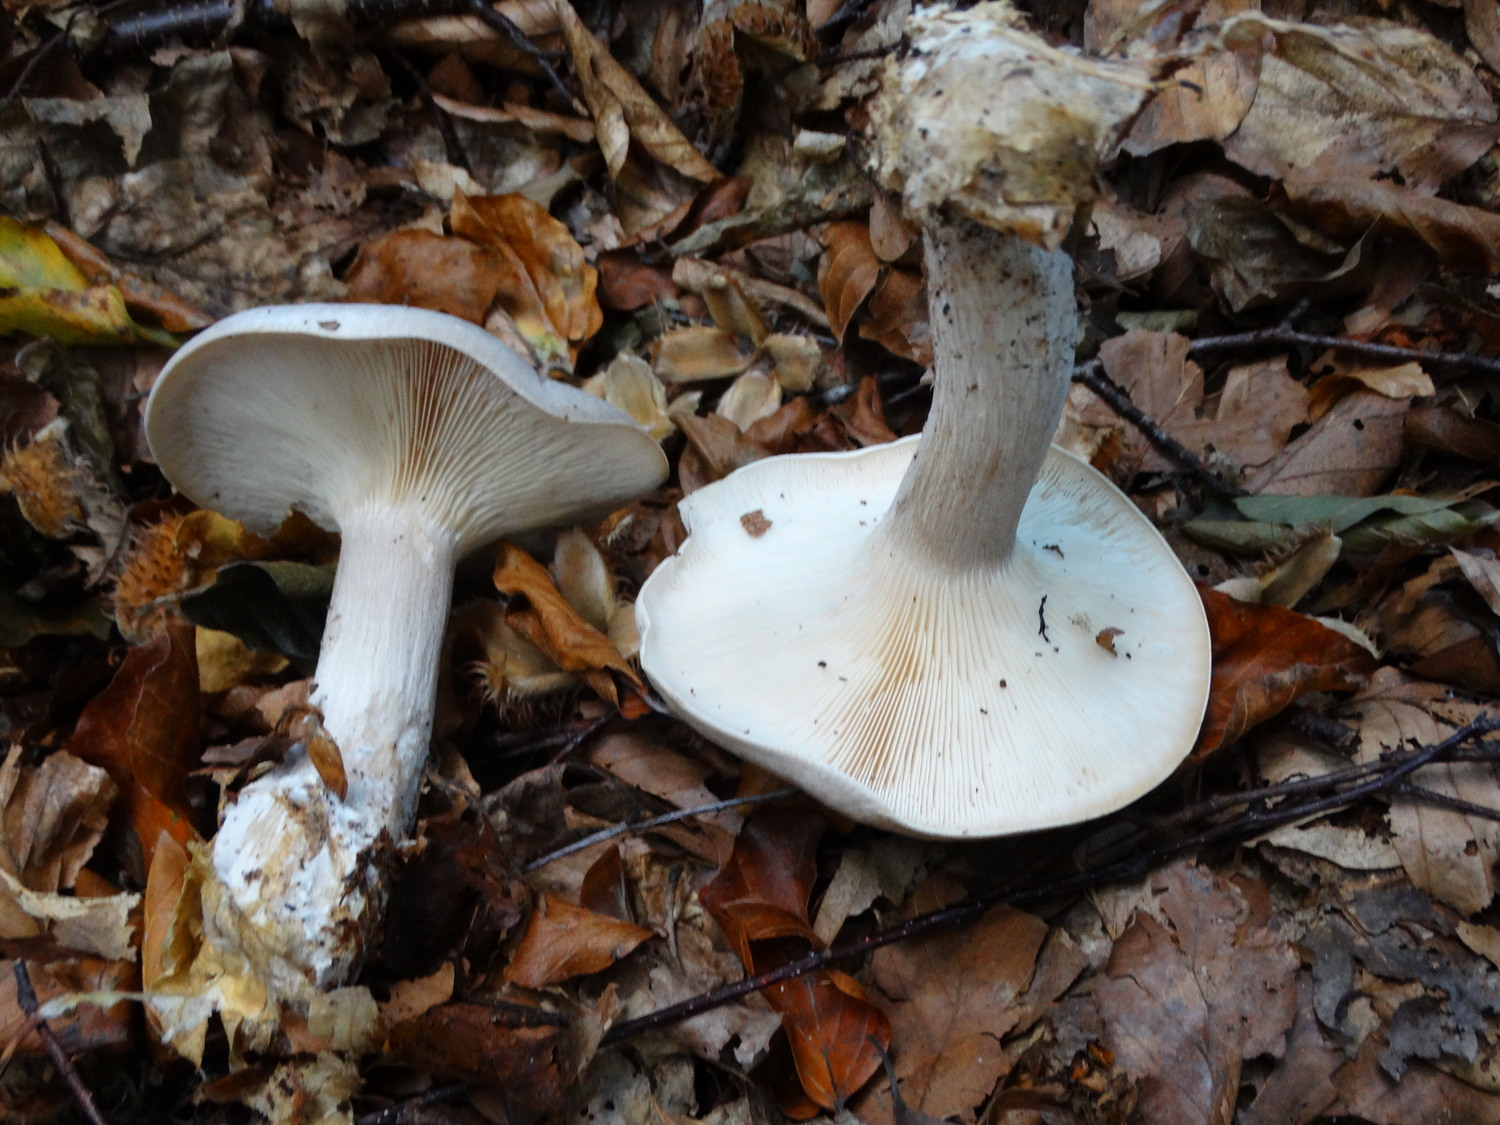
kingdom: Fungi
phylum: Basidiomycota
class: Agaricomycetes
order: Agaricales
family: Tricholomataceae
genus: Clitocybe
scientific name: Clitocybe nebularis
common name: tåge-tragthat
